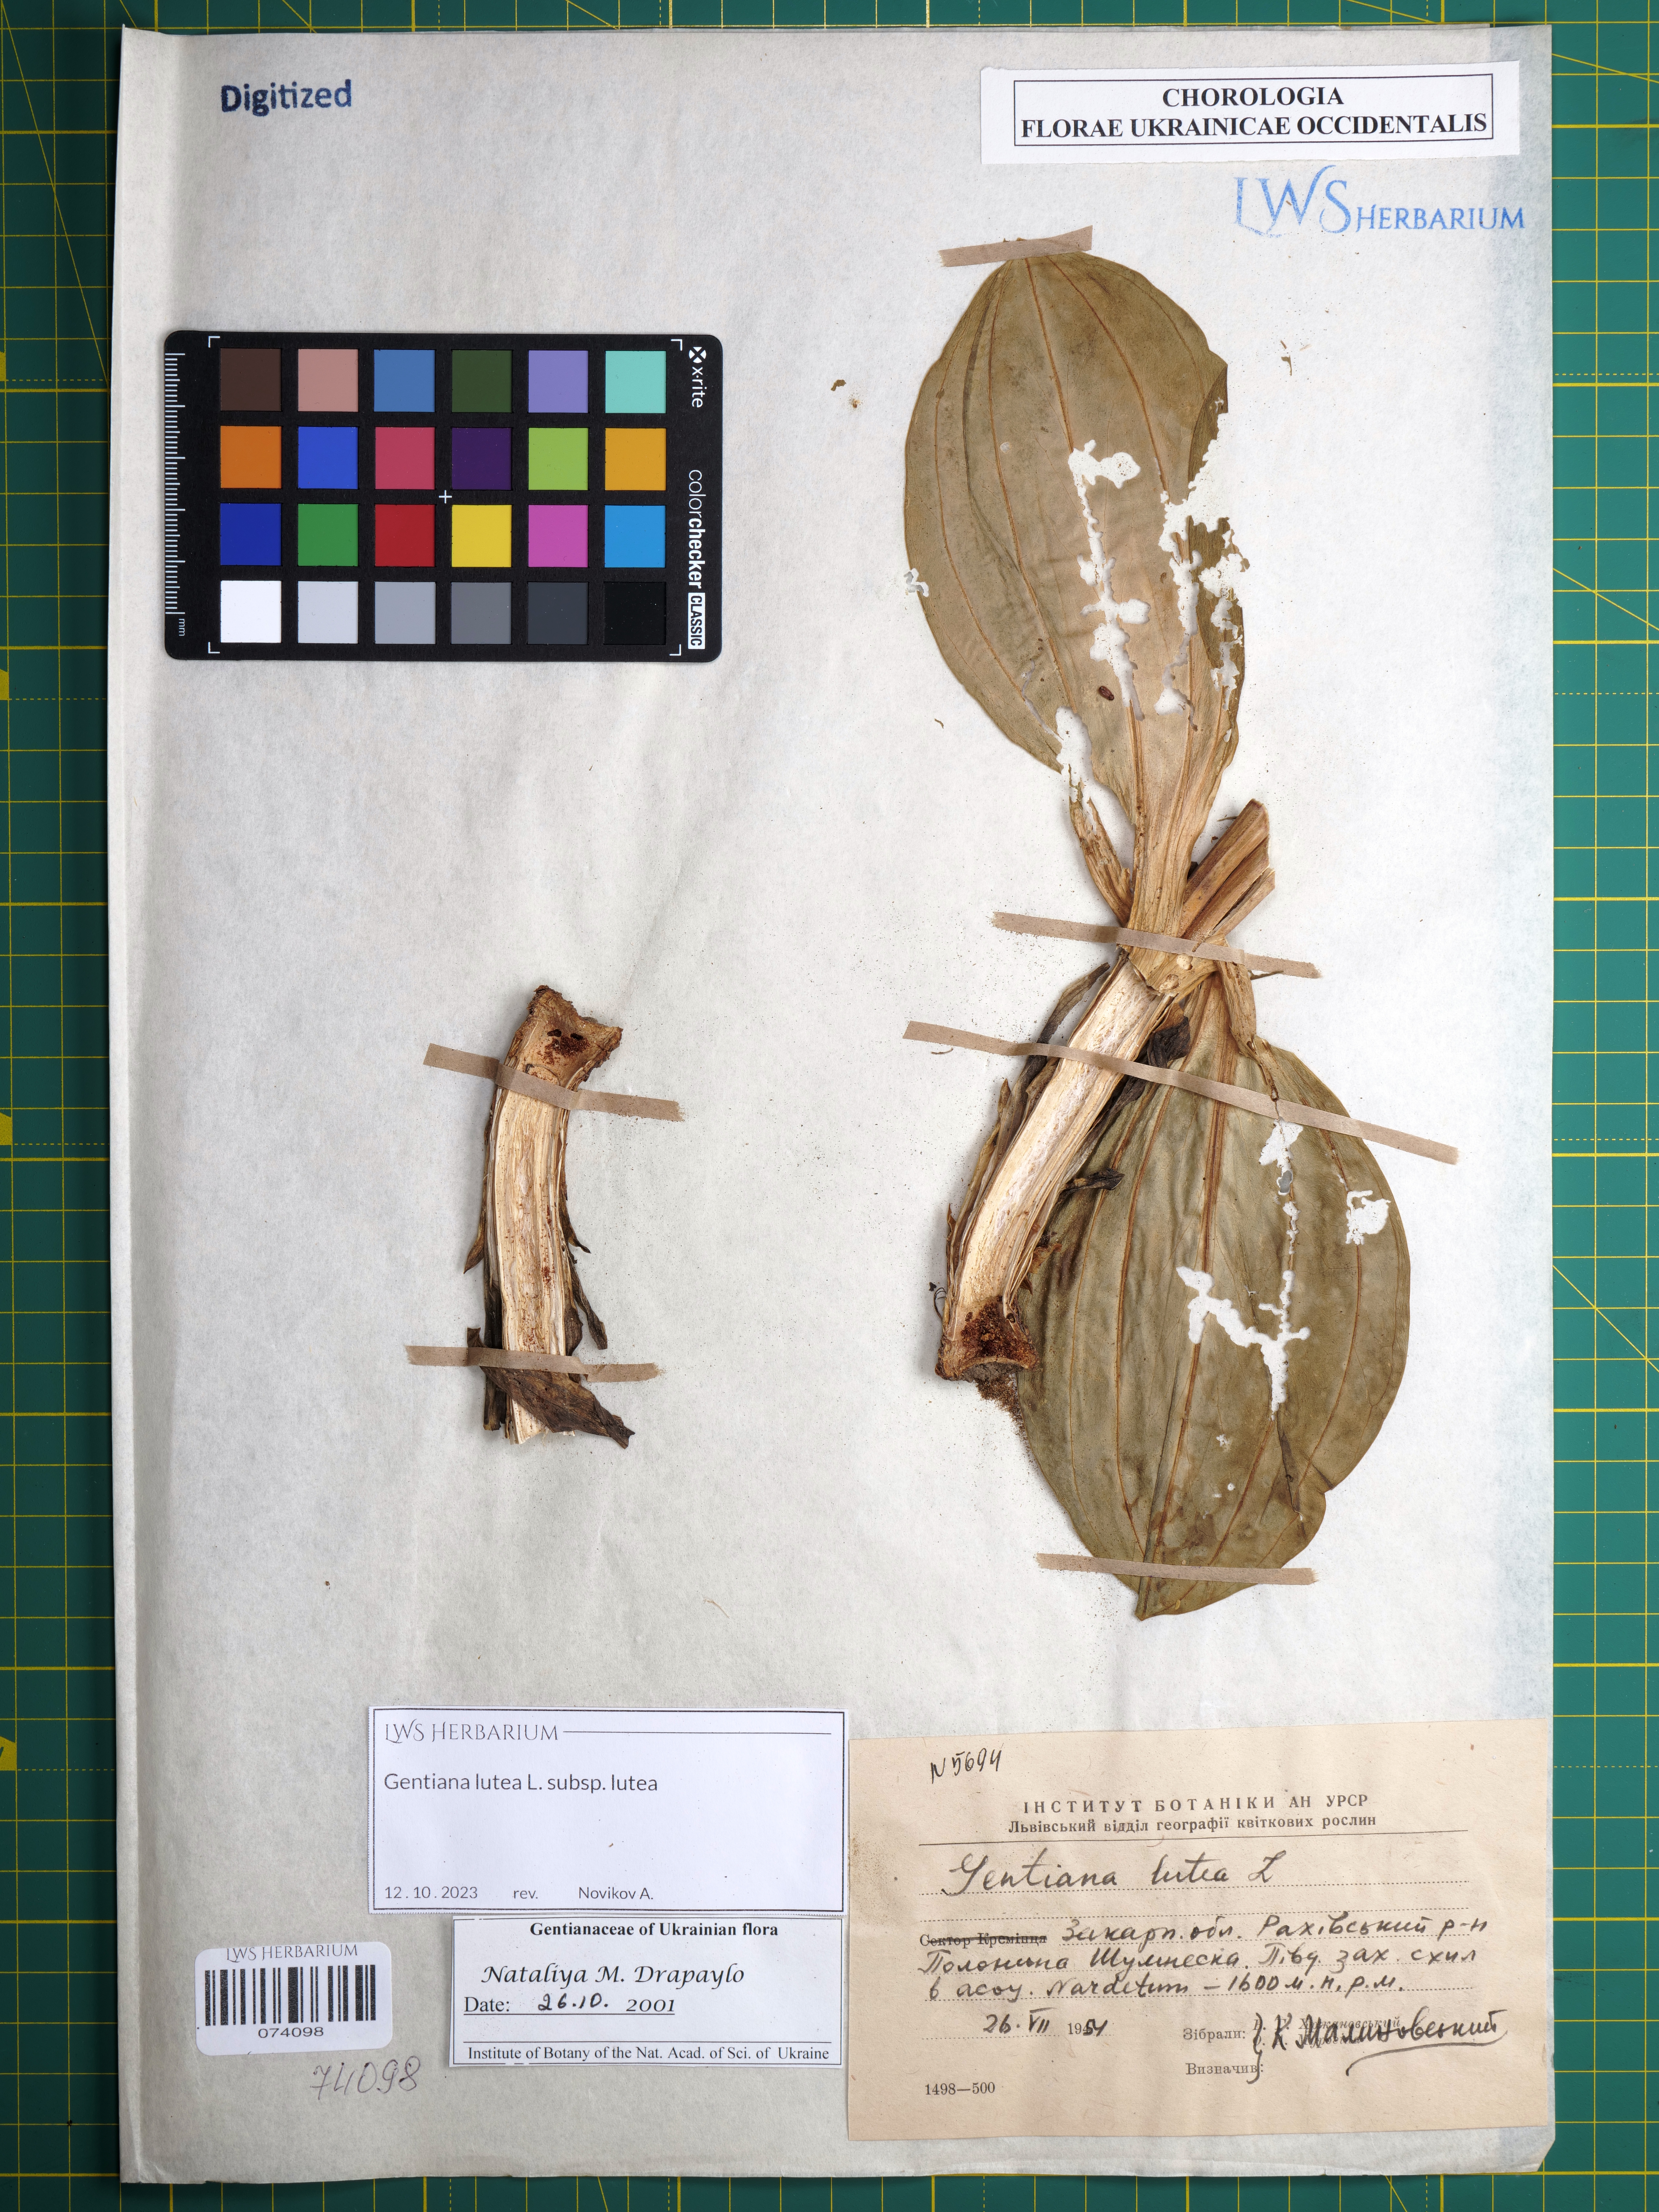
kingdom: Plantae
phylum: Tracheophyta
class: Magnoliopsida
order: Gentianales
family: Gentianaceae
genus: Gentiana
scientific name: Gentiana lutea
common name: Great yellow gentian
